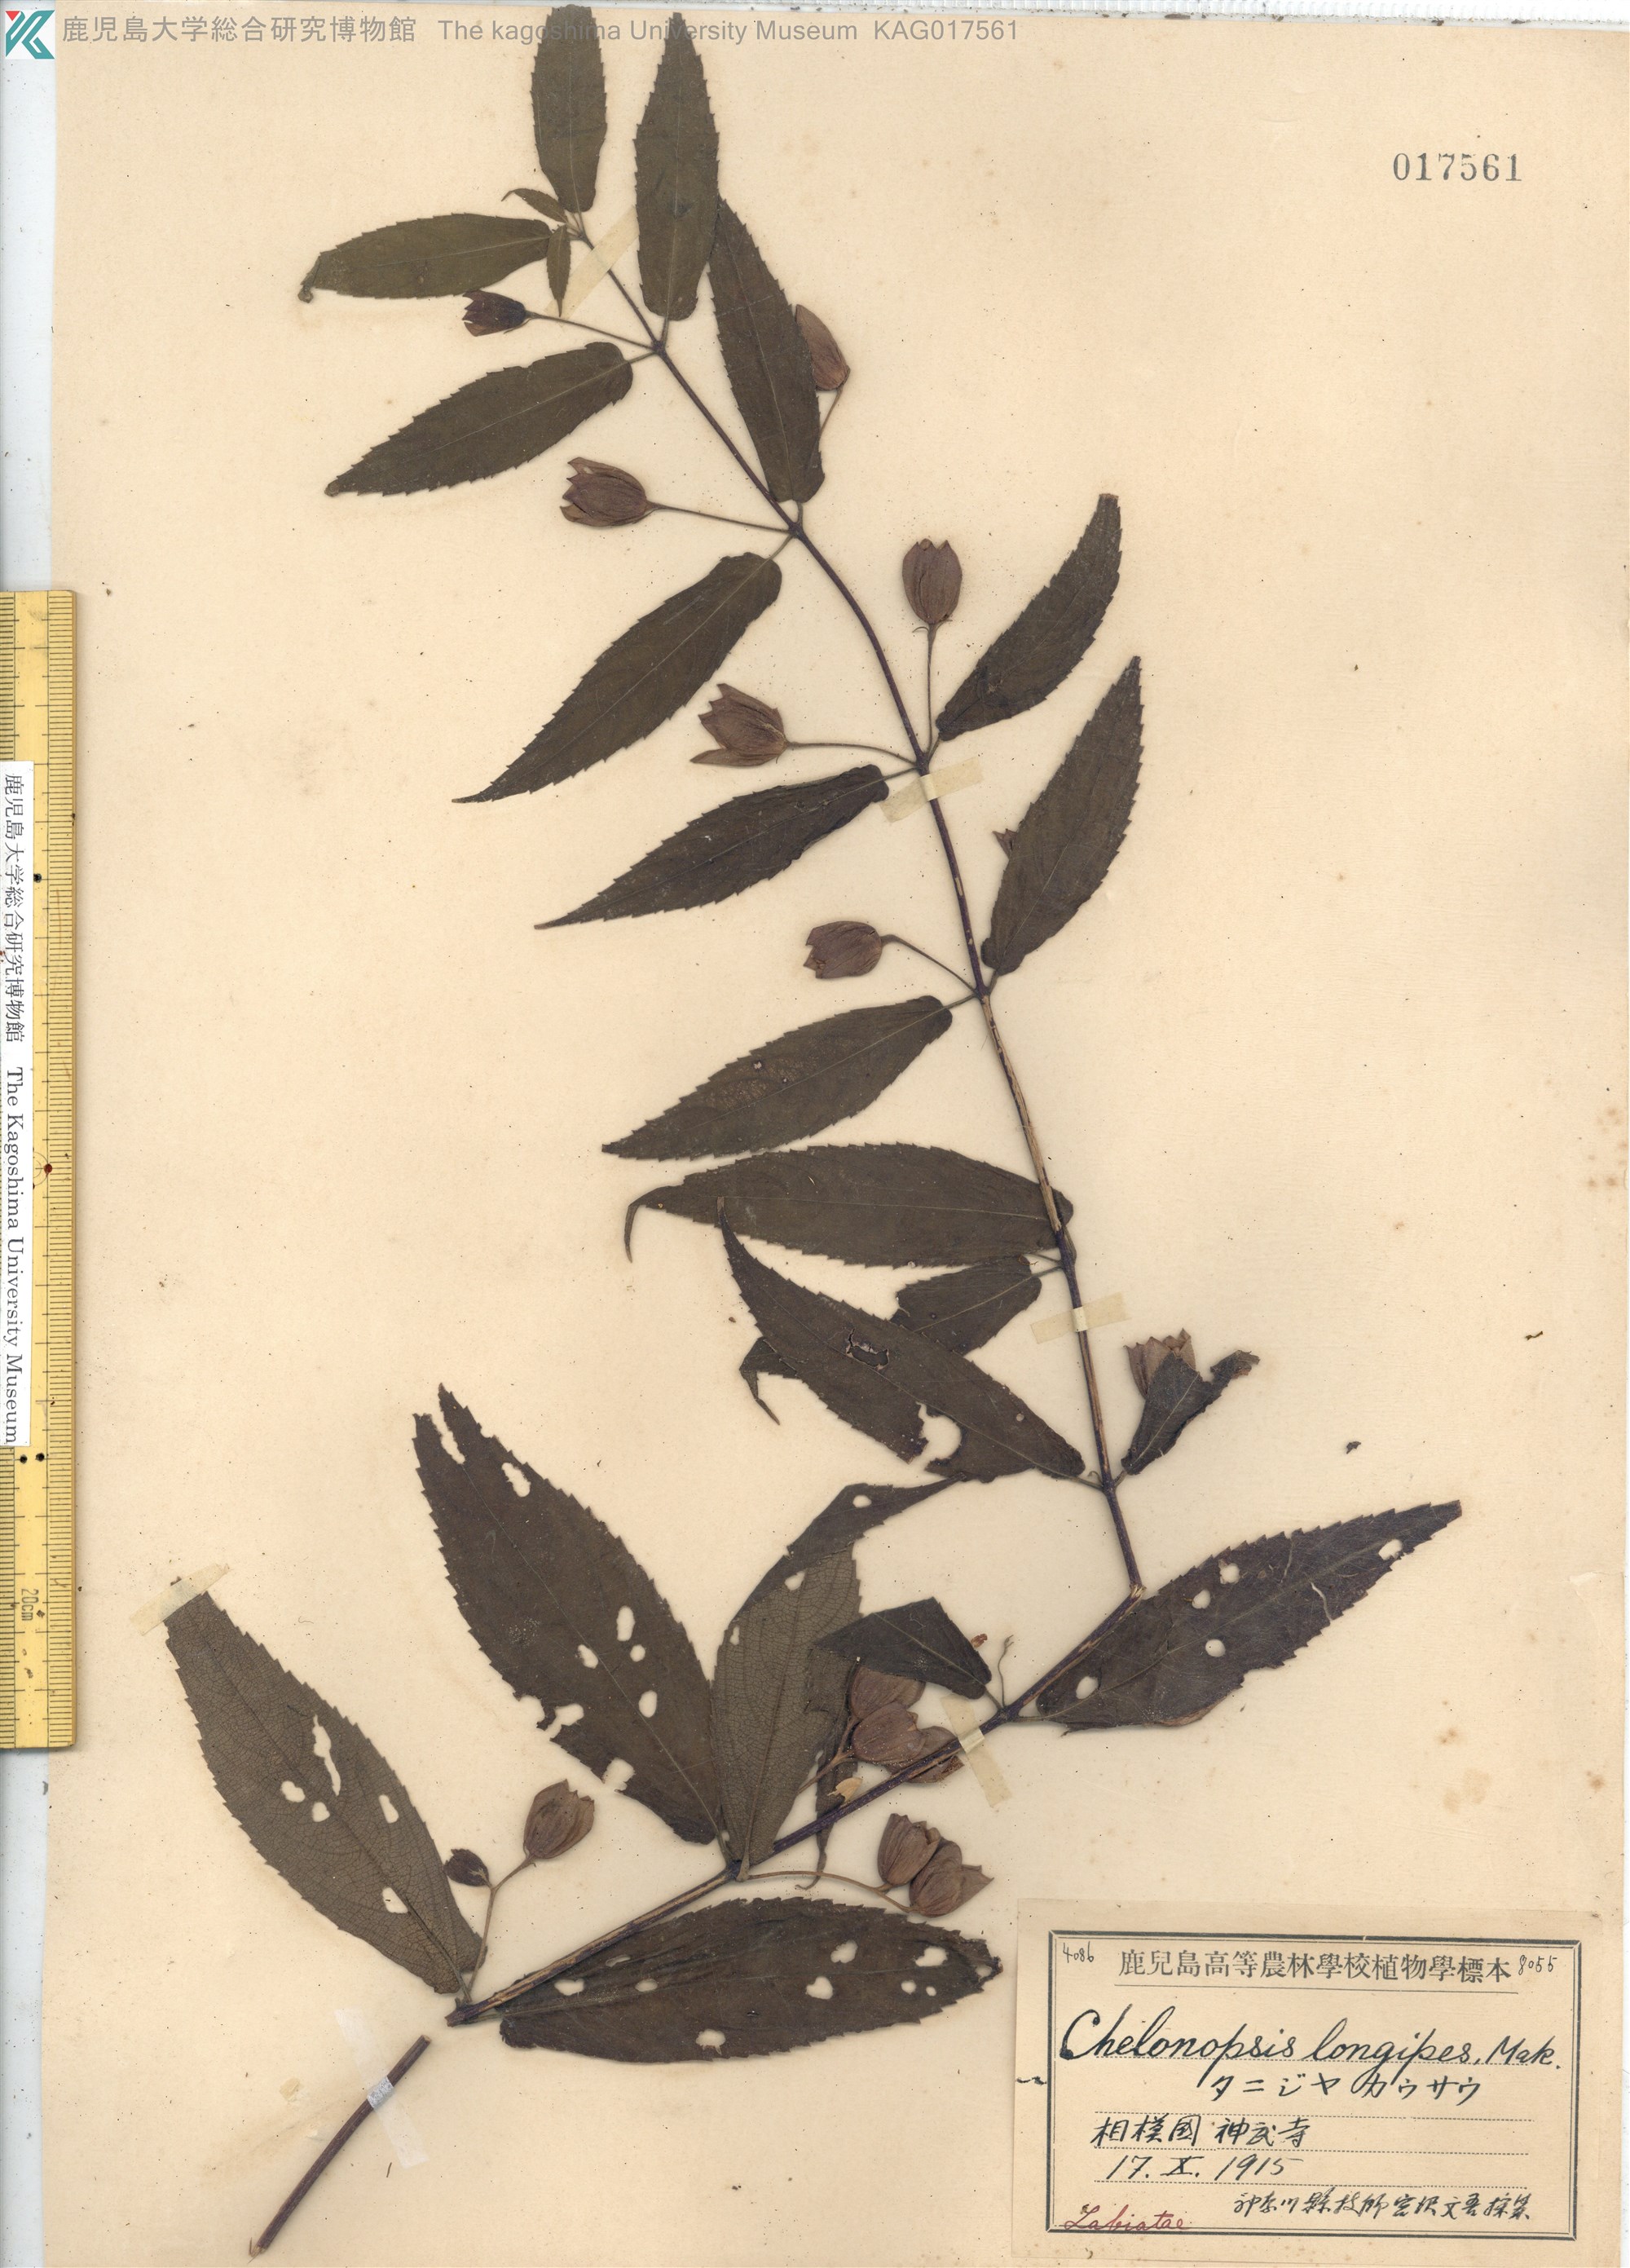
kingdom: Plantae
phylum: Tracheophyta
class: Magnoliopsida
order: Lamiales
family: Lamiaceae
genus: Chelonopsis
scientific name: Chelonopsis longipes
